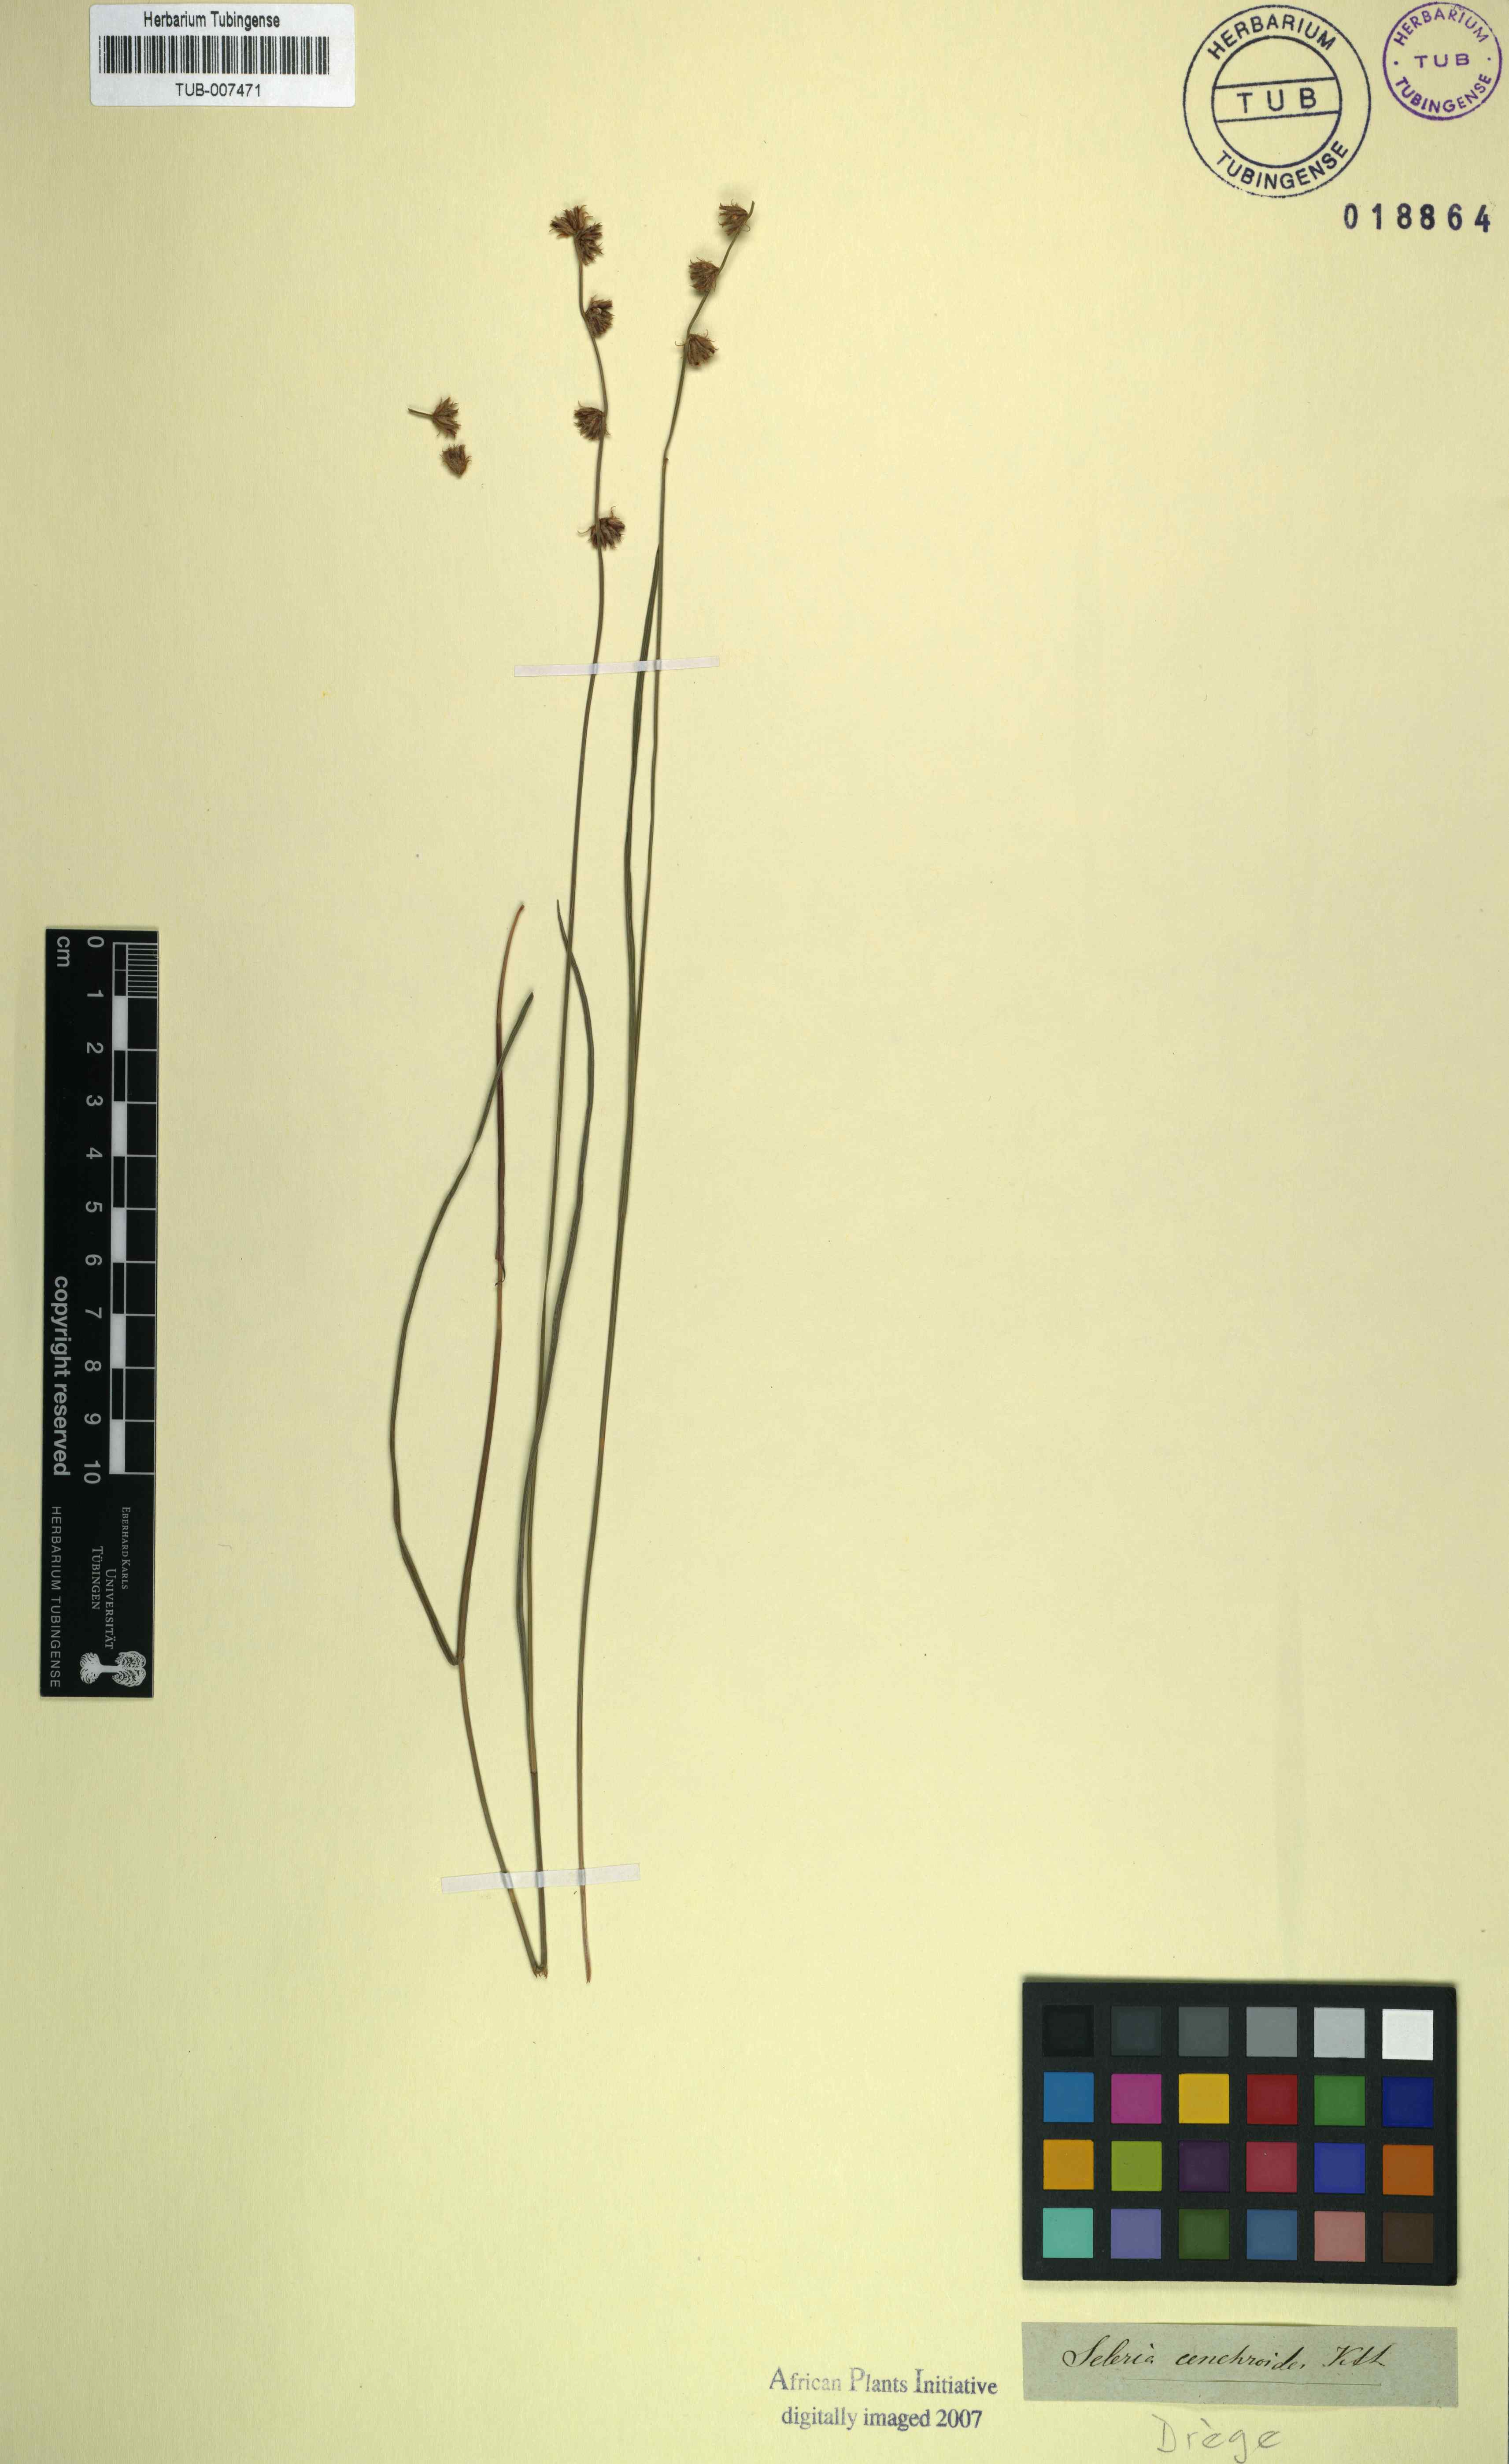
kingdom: Plantae
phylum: Tracheophyta
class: Liliopsida
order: Poales
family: Cyperaceae
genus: Scleria
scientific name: Scleria hirtella
